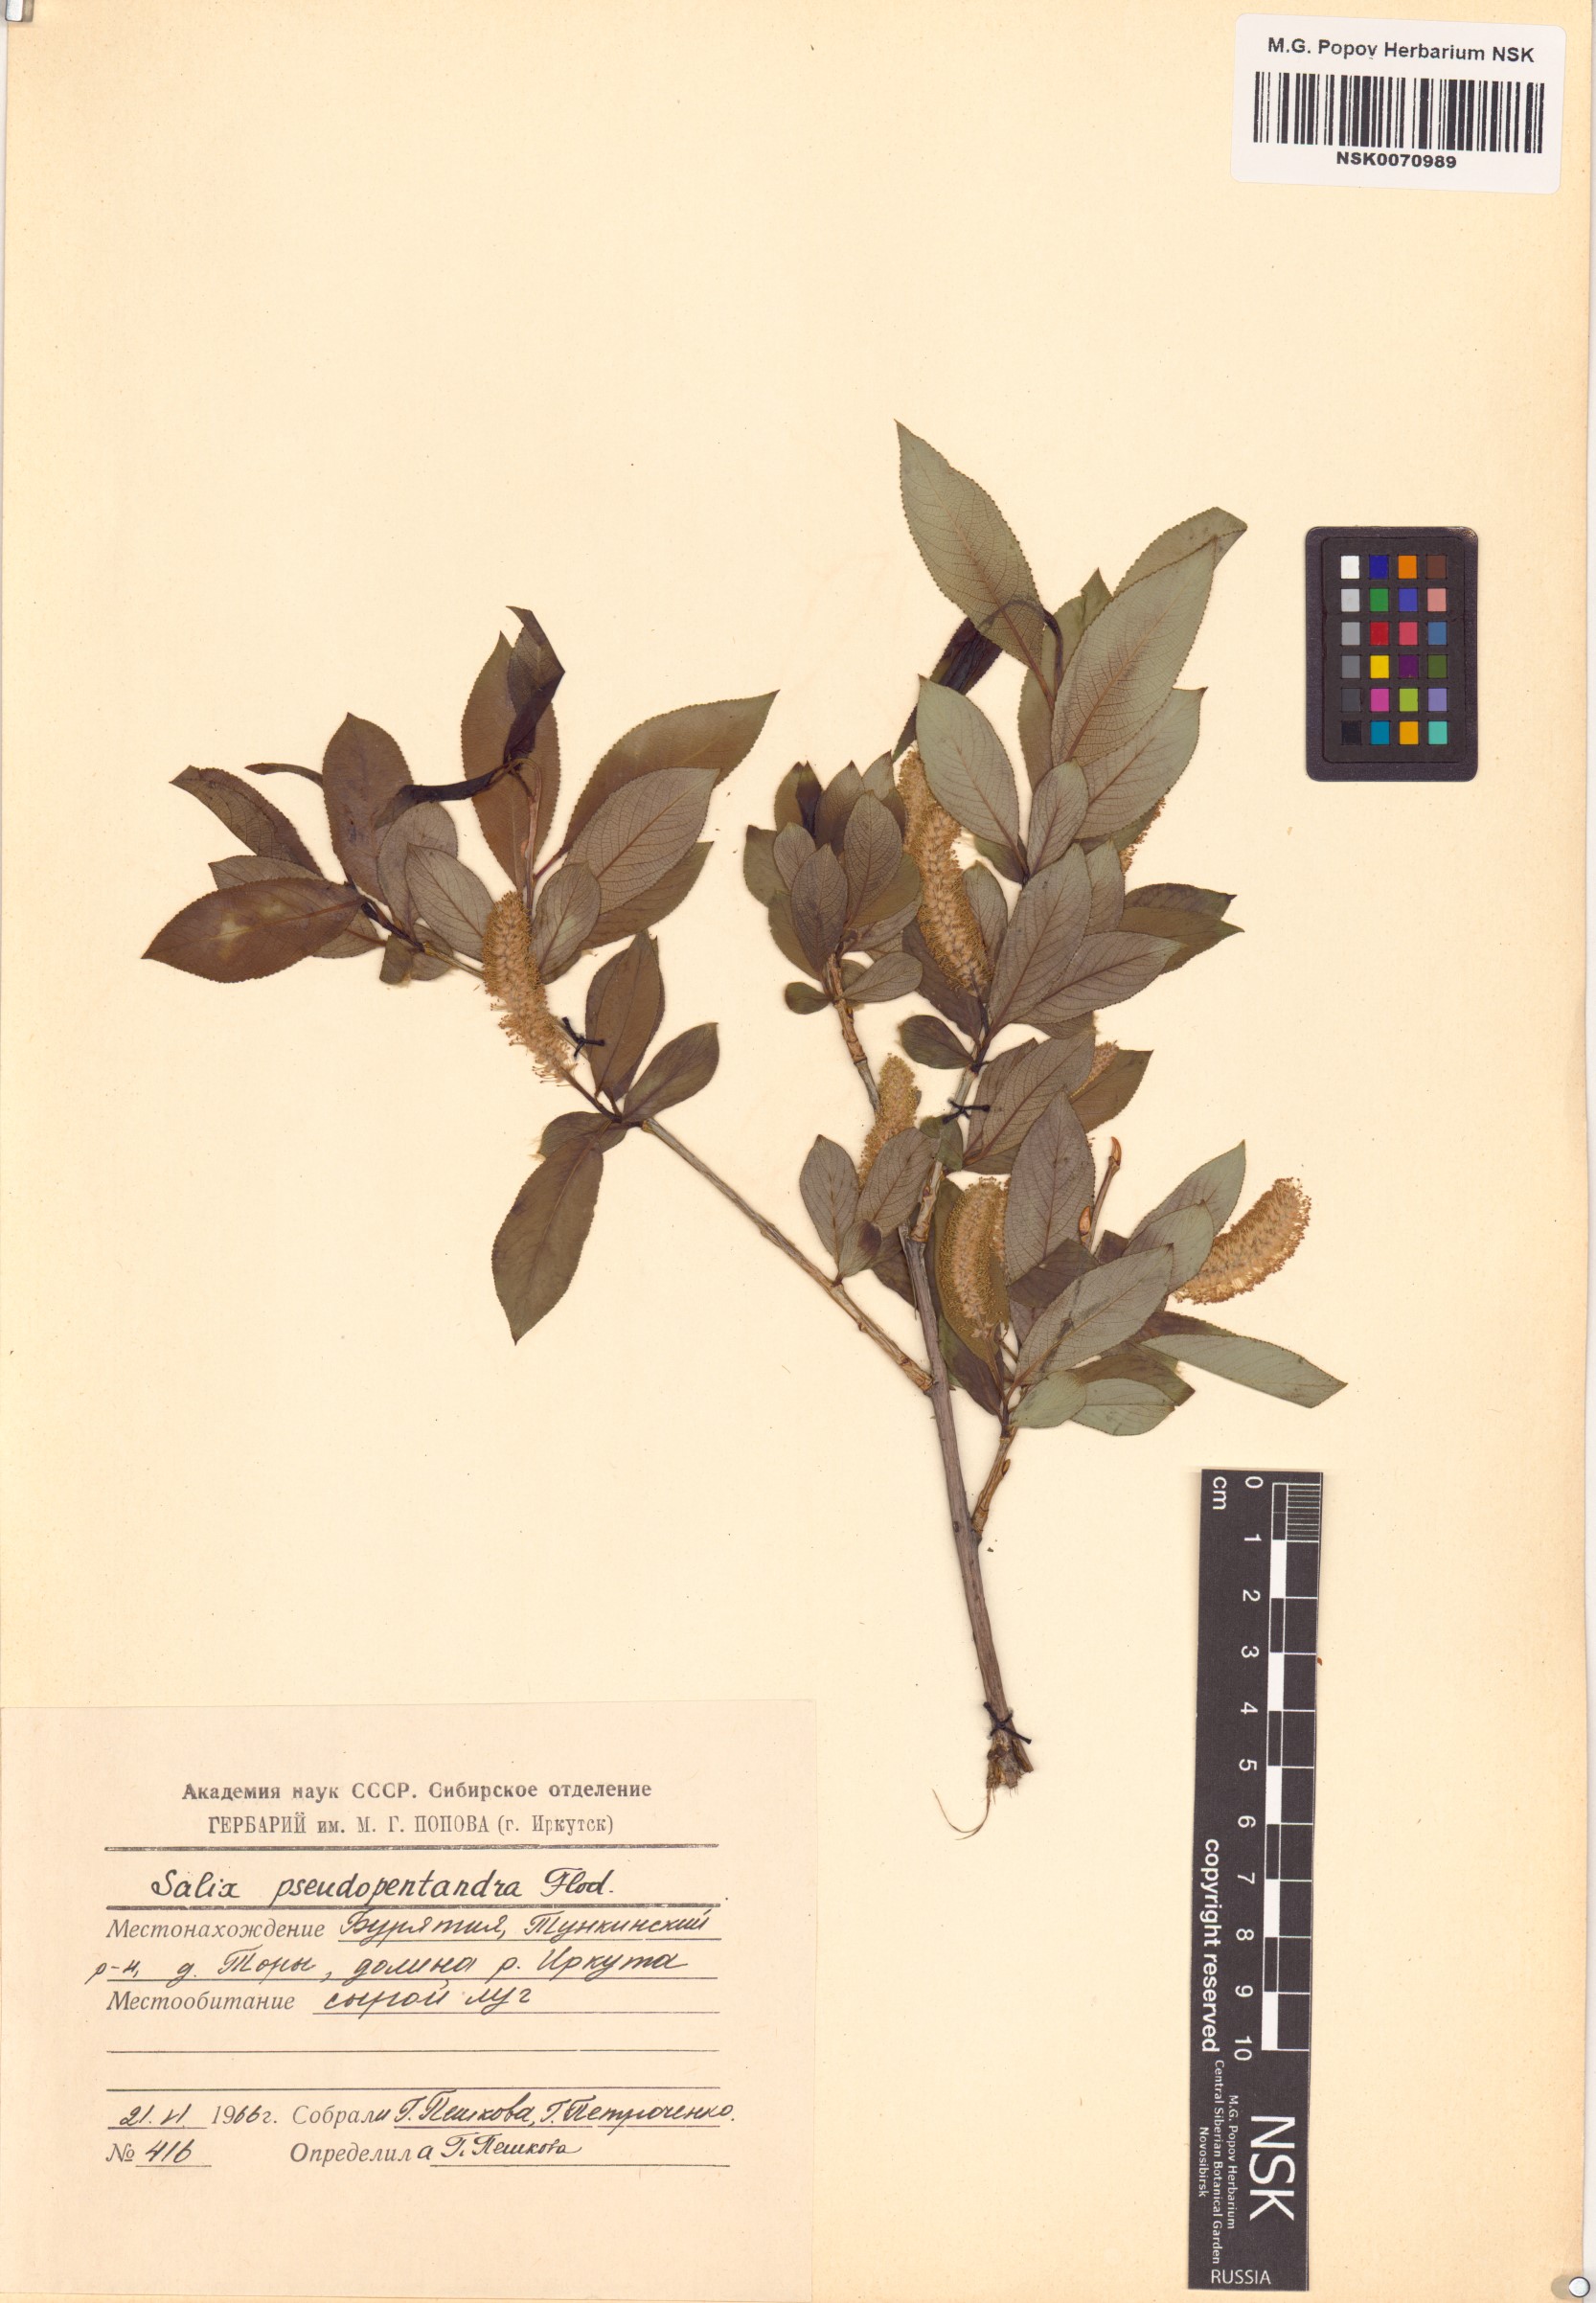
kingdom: Plantae
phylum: Tracheophyta
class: Magnoliopsida
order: Malpighiales
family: Salicaceae
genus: Salix
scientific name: Salix pseudopentandra
